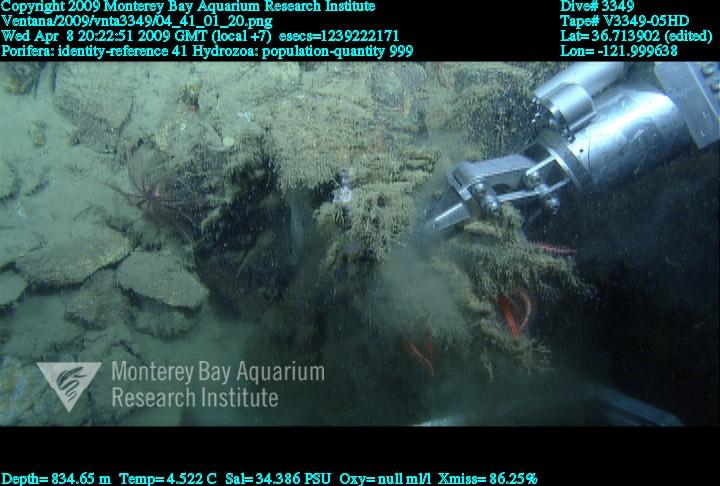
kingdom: Animalia
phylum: Porifera
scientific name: Porifera
